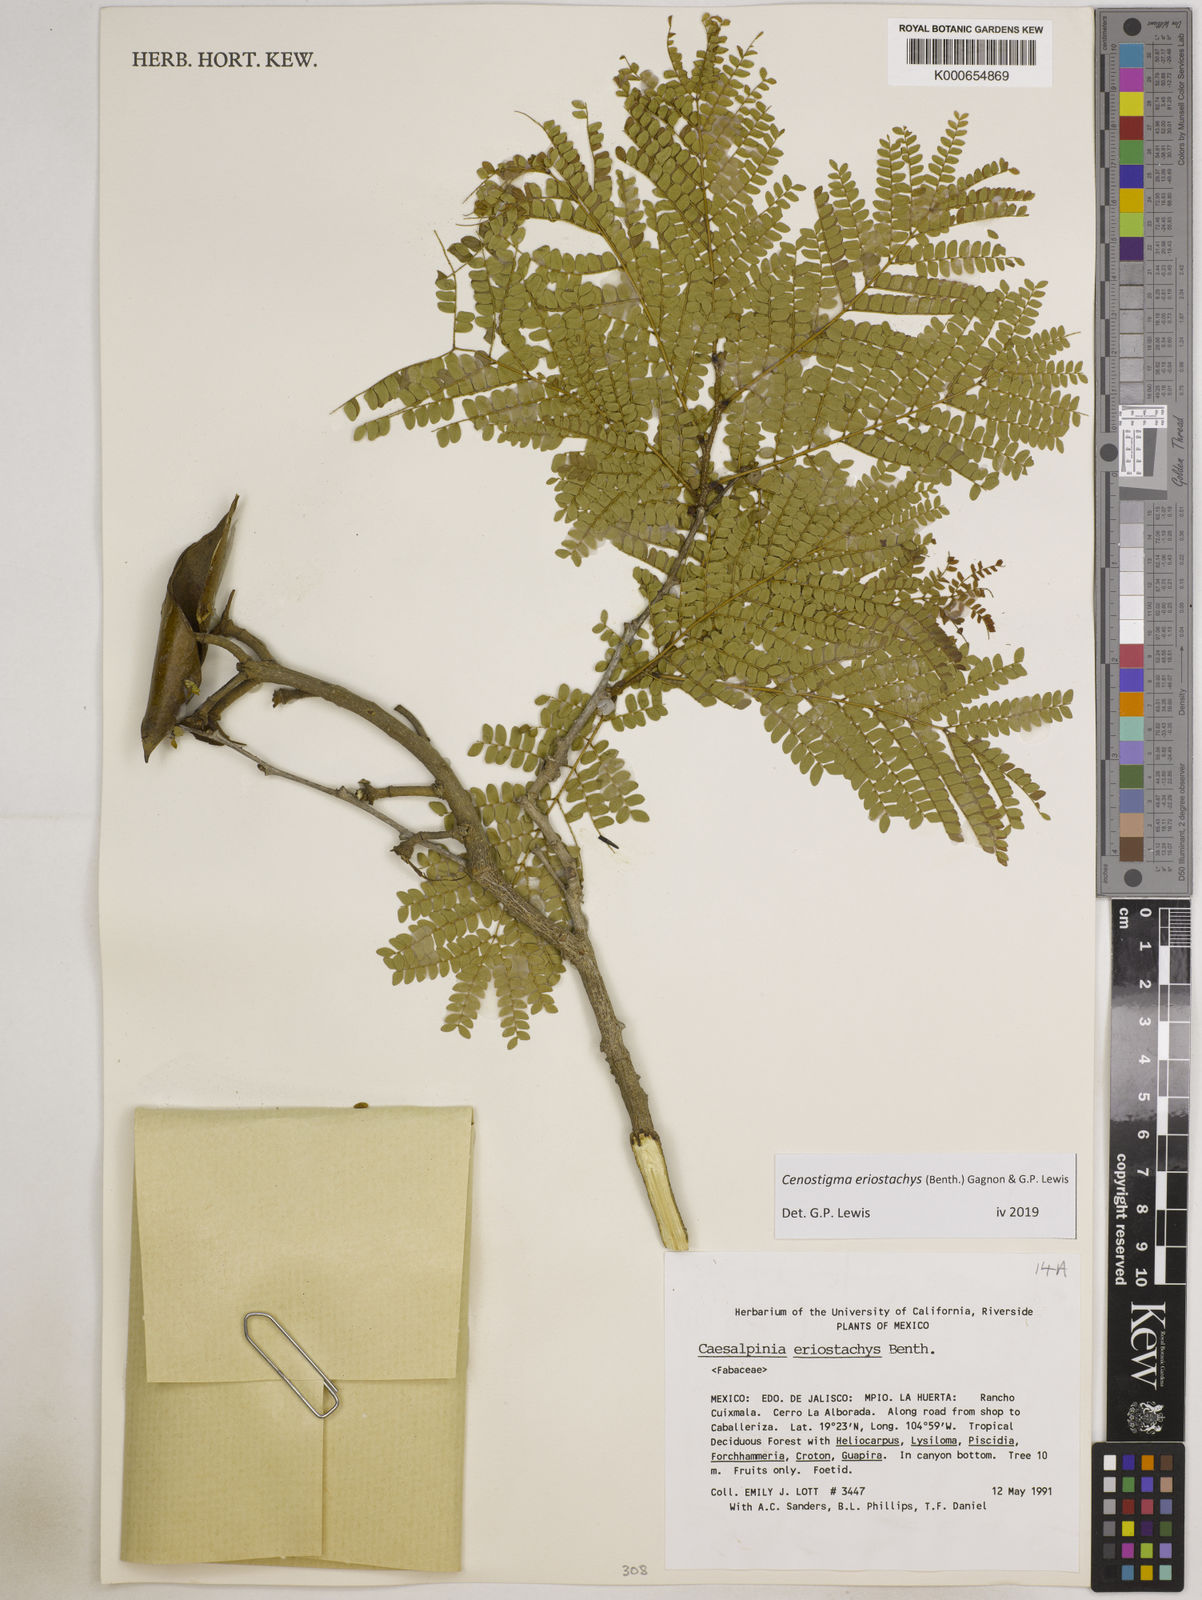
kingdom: Plantae
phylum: Tracheophyta
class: Magnoliopsida
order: Fabales
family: Fabaceae
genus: Cenostigma
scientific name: Cenostigma eriostachys
